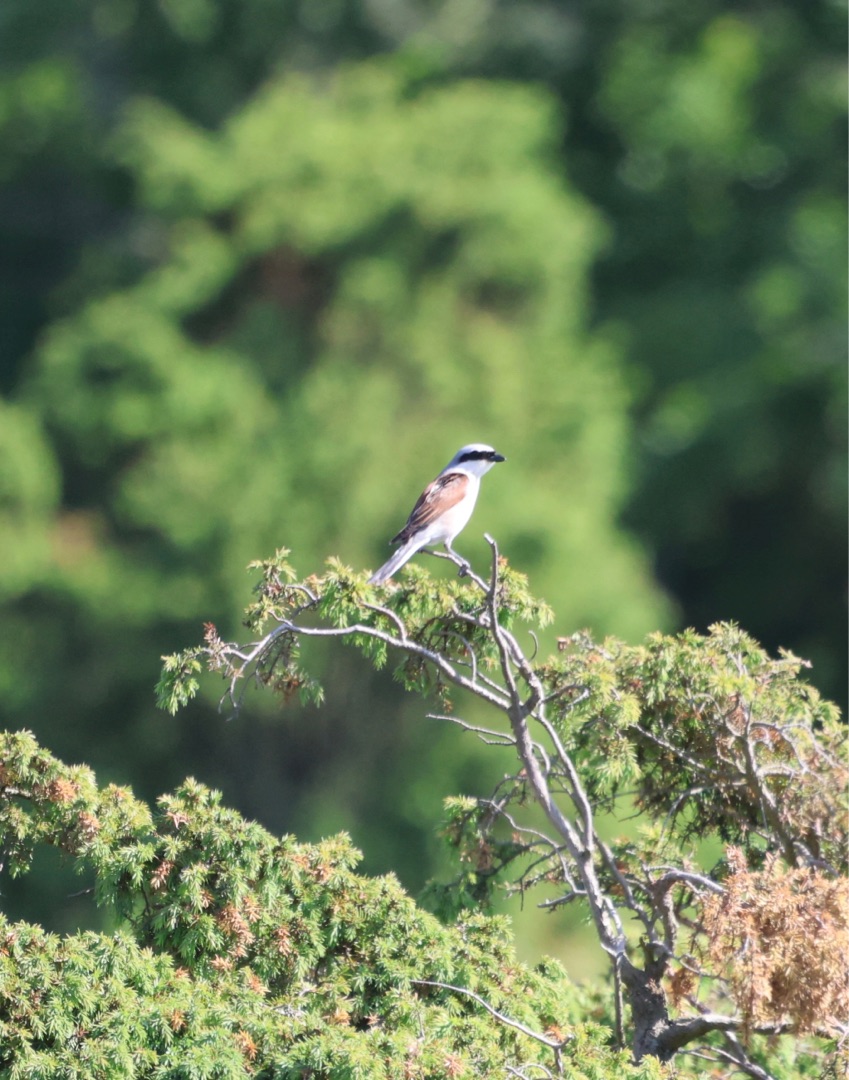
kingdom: Animalia
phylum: Chordata
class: Aves
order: Passeriformes
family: Laniidae
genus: Lanius
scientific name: Lanius collurio
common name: Rødrygget tornskade
